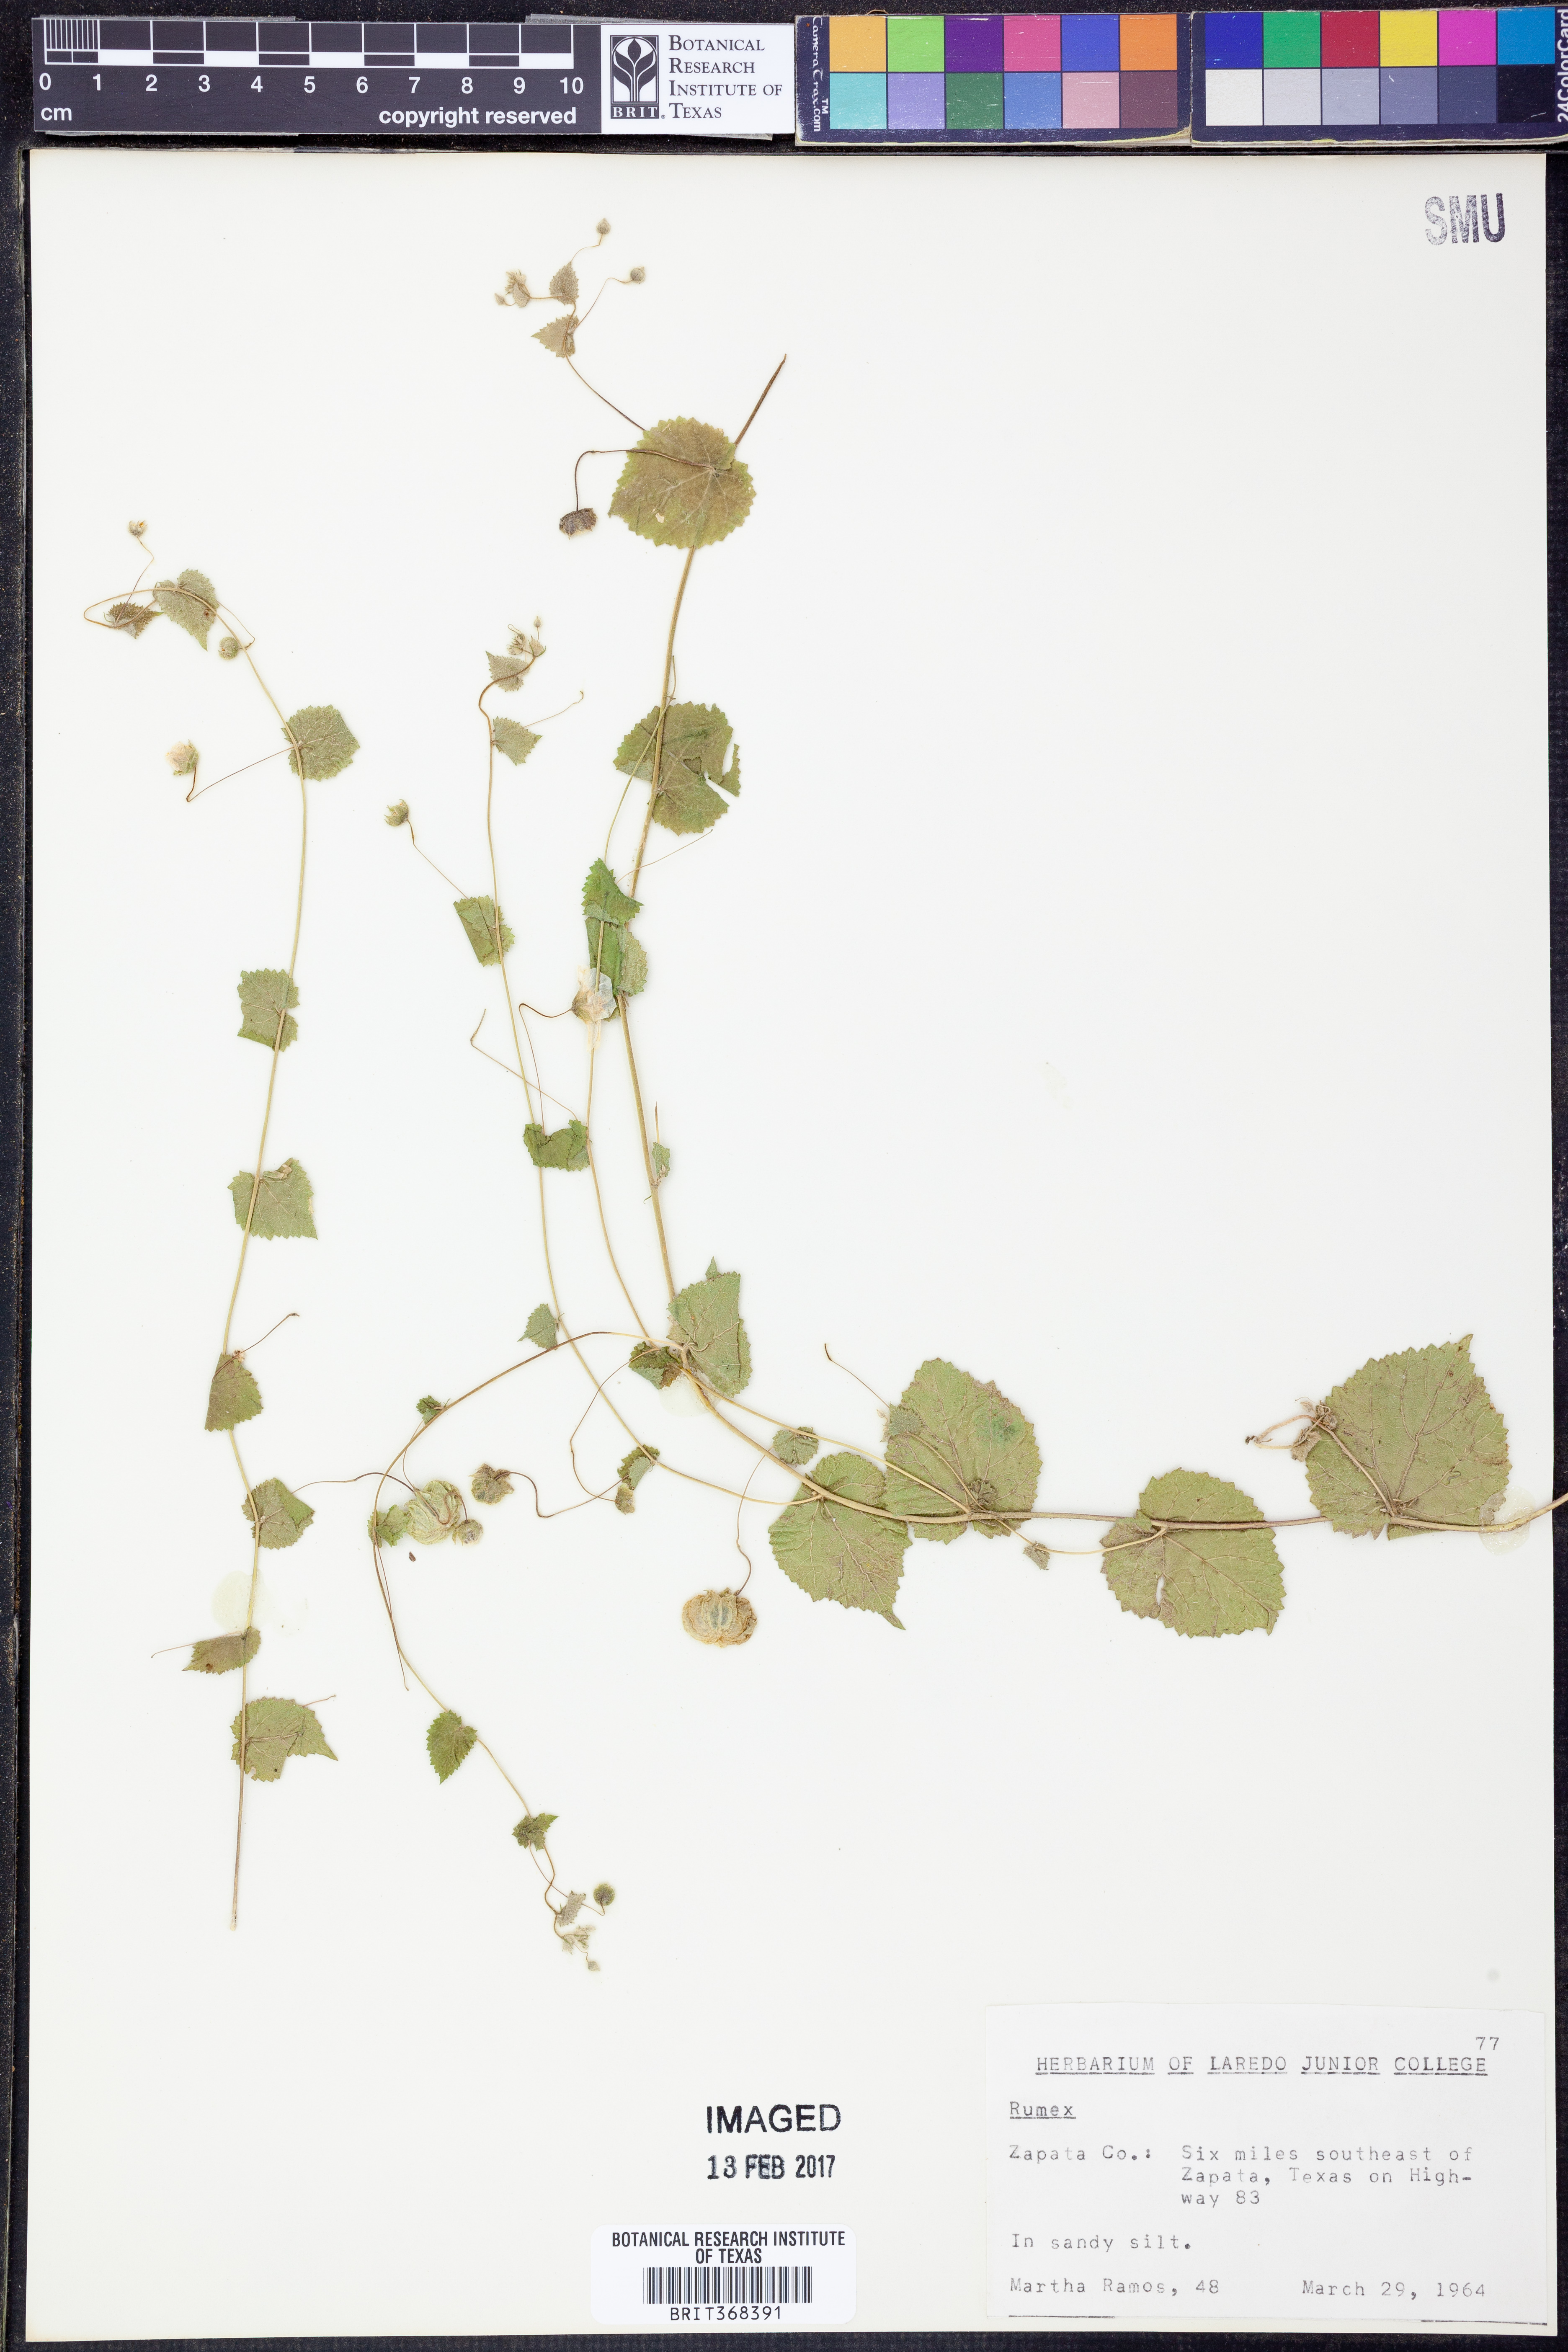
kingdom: Plantae
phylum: Tracheophyta
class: Magnoliopsida
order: Malvales
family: Malvaceae
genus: Herissantia
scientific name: Herissantia crispa
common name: Bladdermallow
